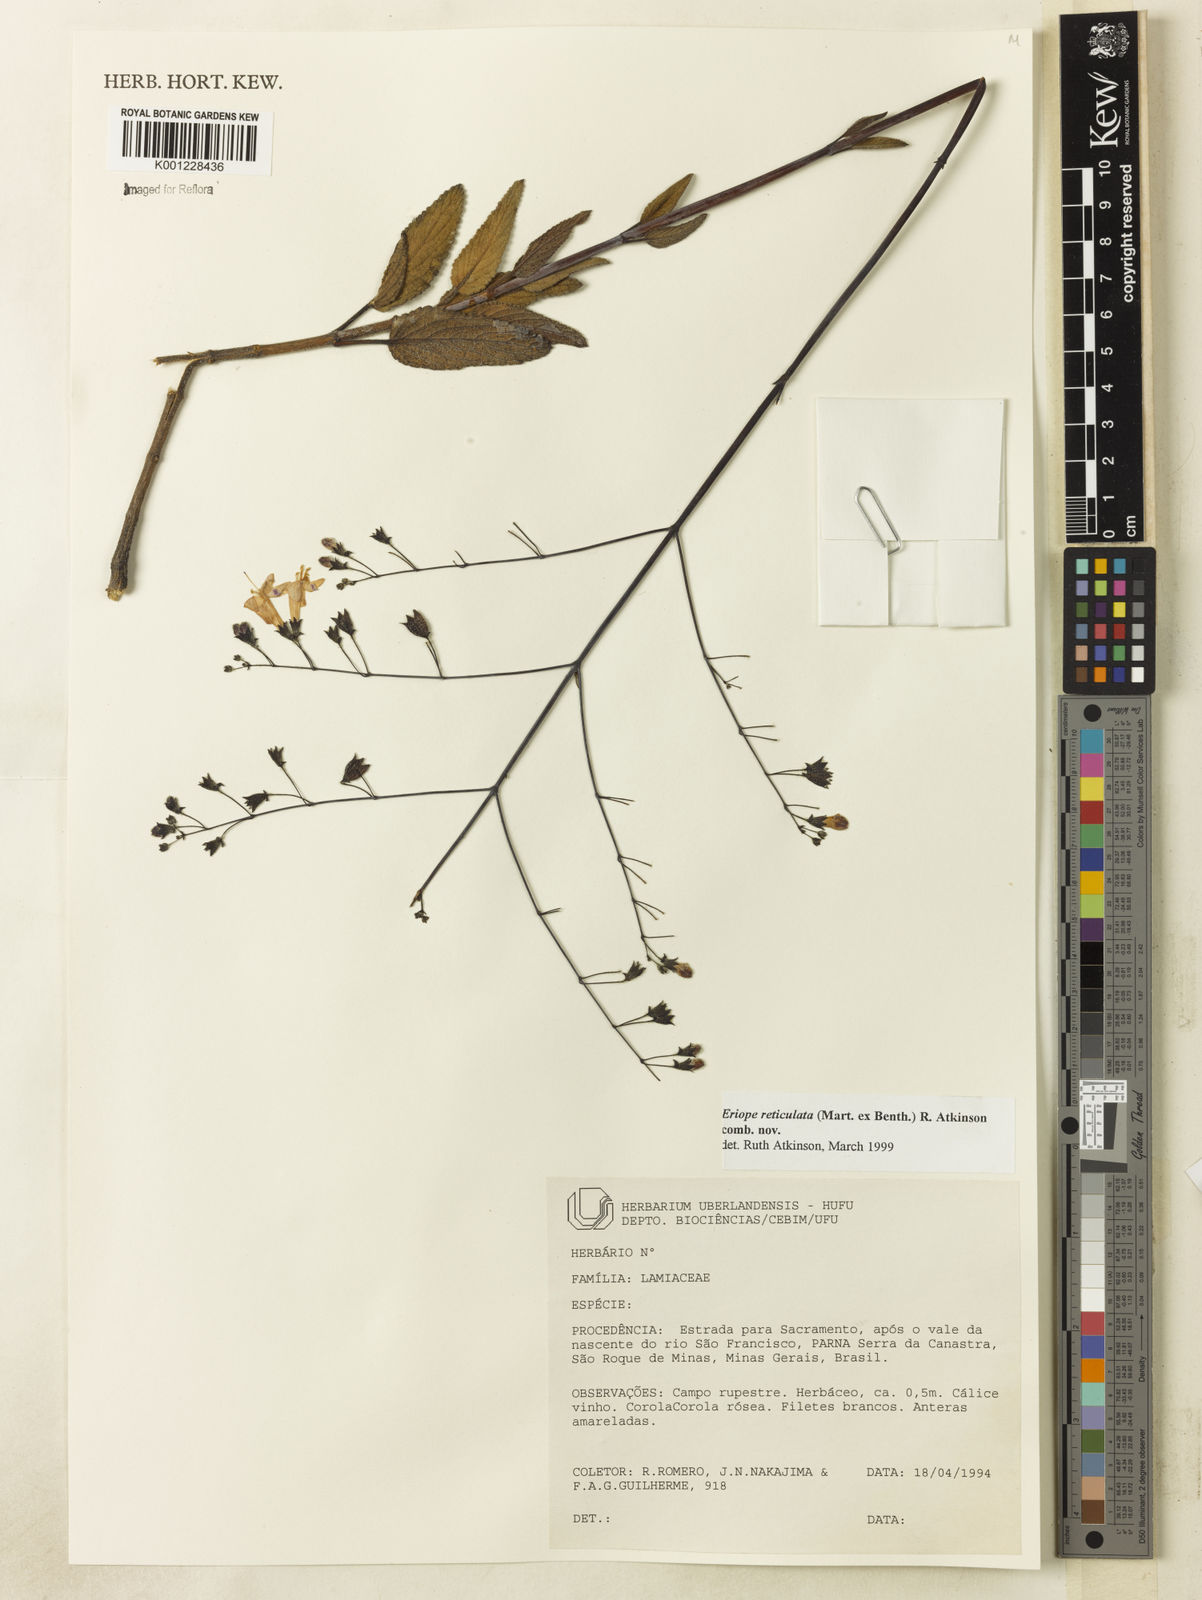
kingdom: Plantae
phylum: Tracheophyta
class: Magnoliopsida
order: Lamiales
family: Lamiaceae
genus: Hypenia
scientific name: Hypenia reticulata
